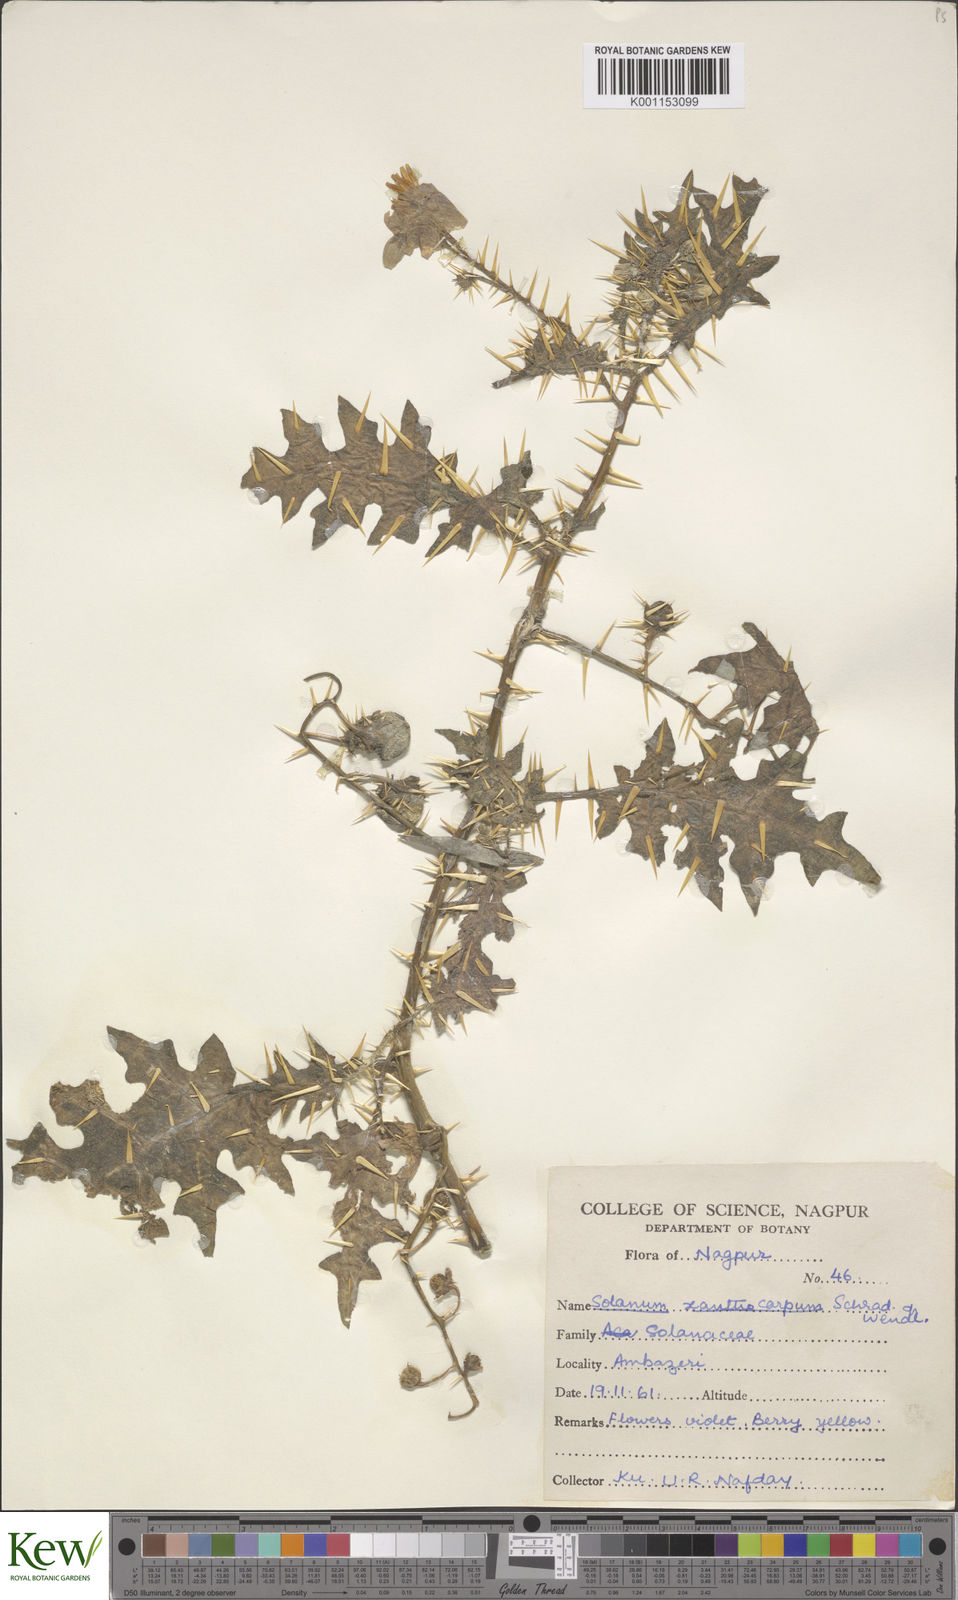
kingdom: Plantae
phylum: Tracheophyta
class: Magnoliopsida
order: Solanales
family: Solanaceae
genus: Solanum
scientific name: Solanum virginianum
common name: Surattense nightshade
